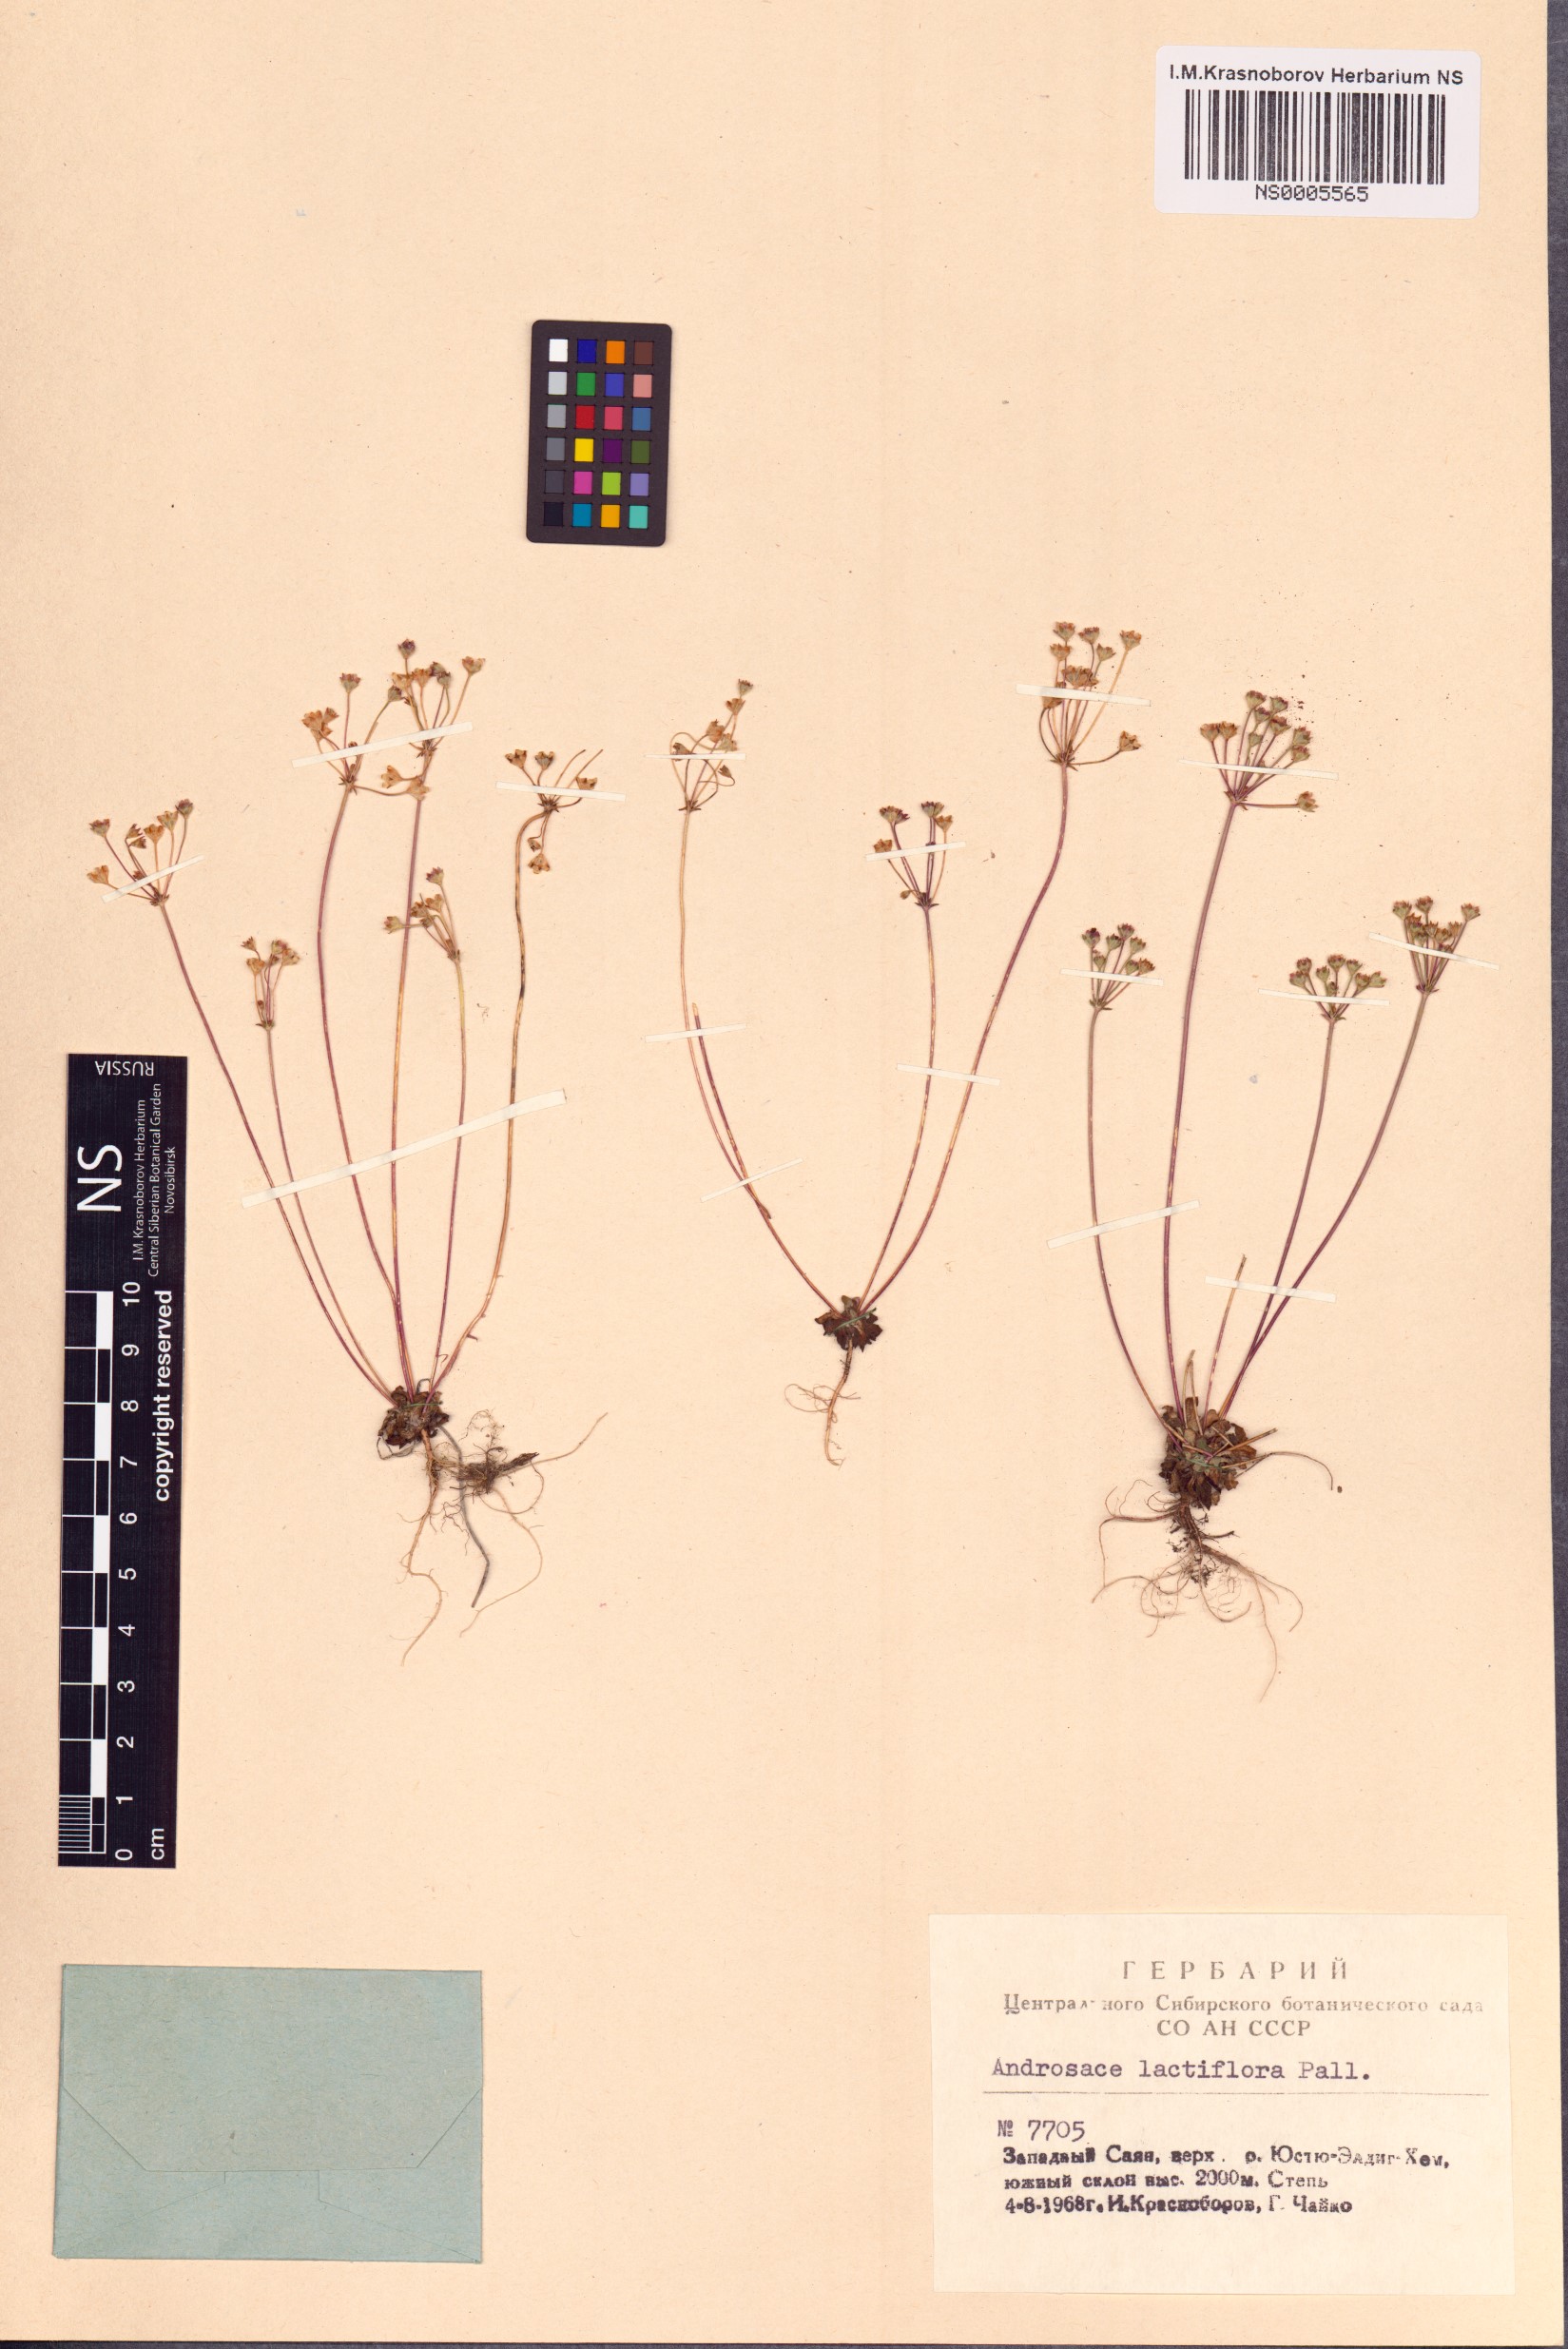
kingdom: Plantae
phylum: Tracheophyta
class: Magnoliopsida
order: Ericales
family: Primulaceae
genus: Androsace
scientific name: Androsace lactiflora
